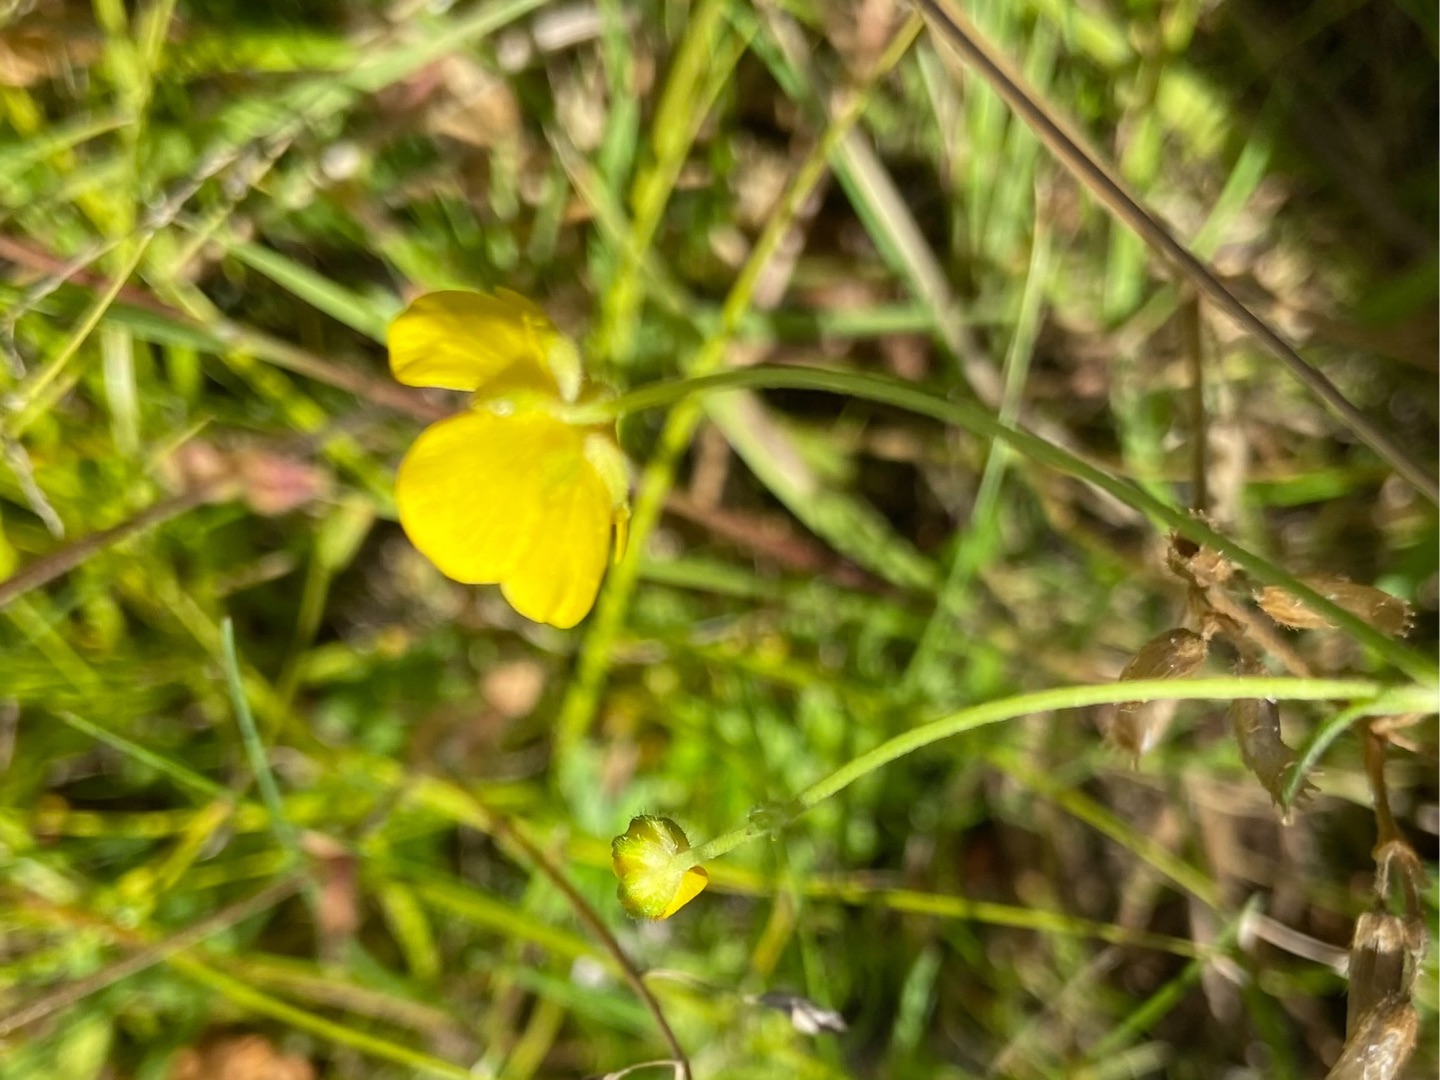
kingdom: Plantae
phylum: Tracheophyta
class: Magnoliopsida
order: Ranunculales
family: Ranunculaceae
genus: Ranunculus
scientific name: Ranunculus acris
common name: Bidende ranunkel
